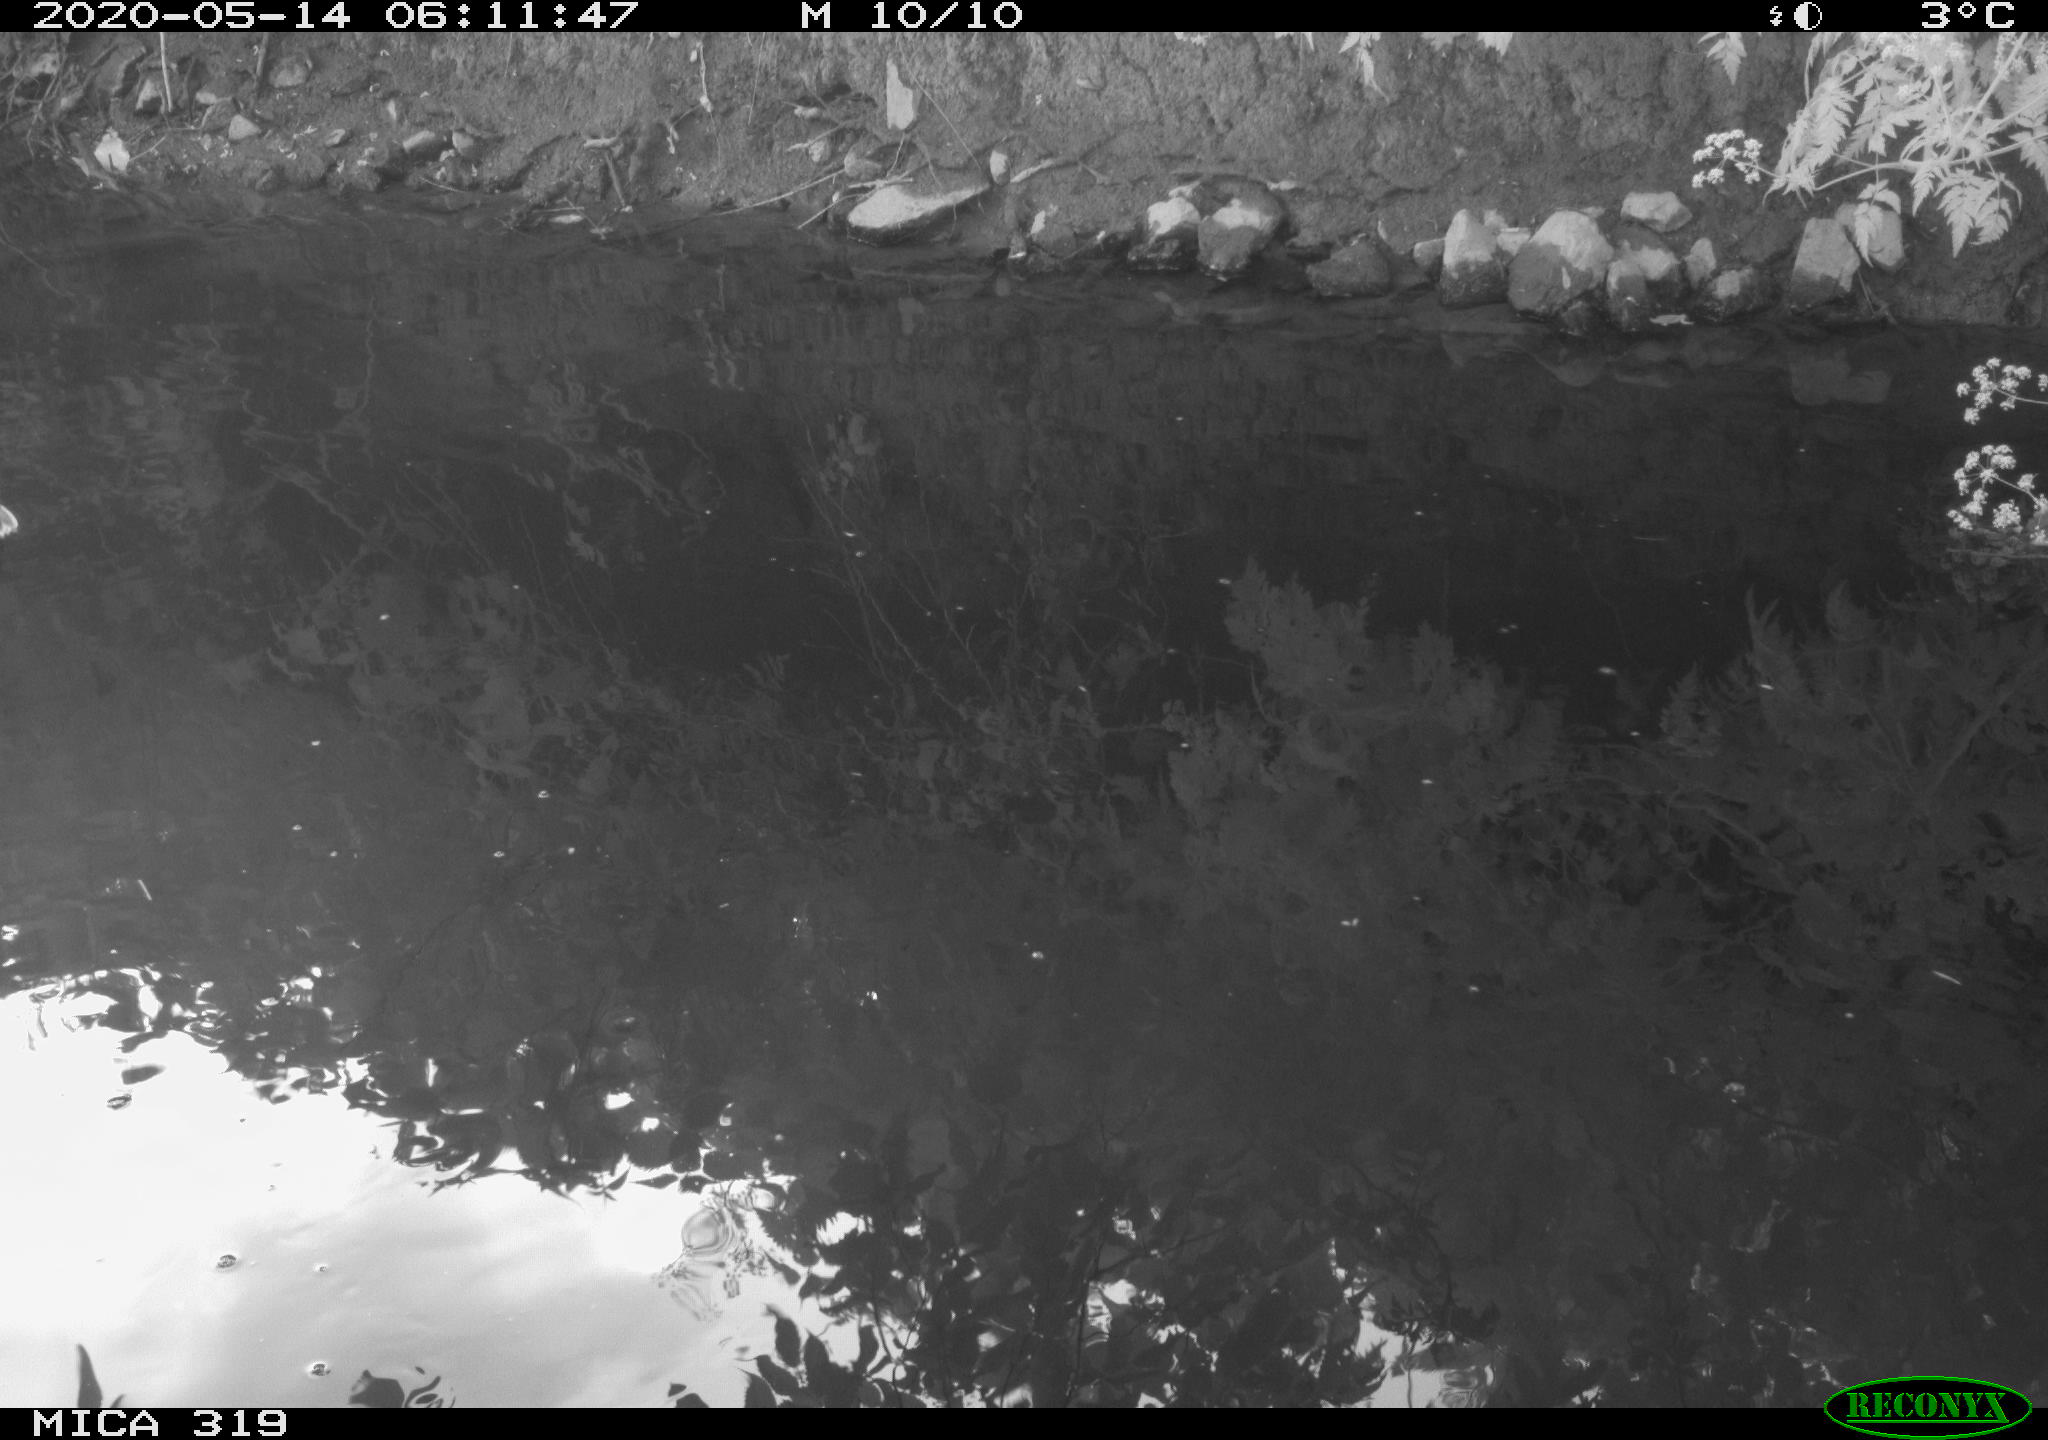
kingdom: Animalia
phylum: Chordata
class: Aves
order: Anseriformes
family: Anatidae
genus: Anas
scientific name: Anas platyrhynchos
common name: Mallard
